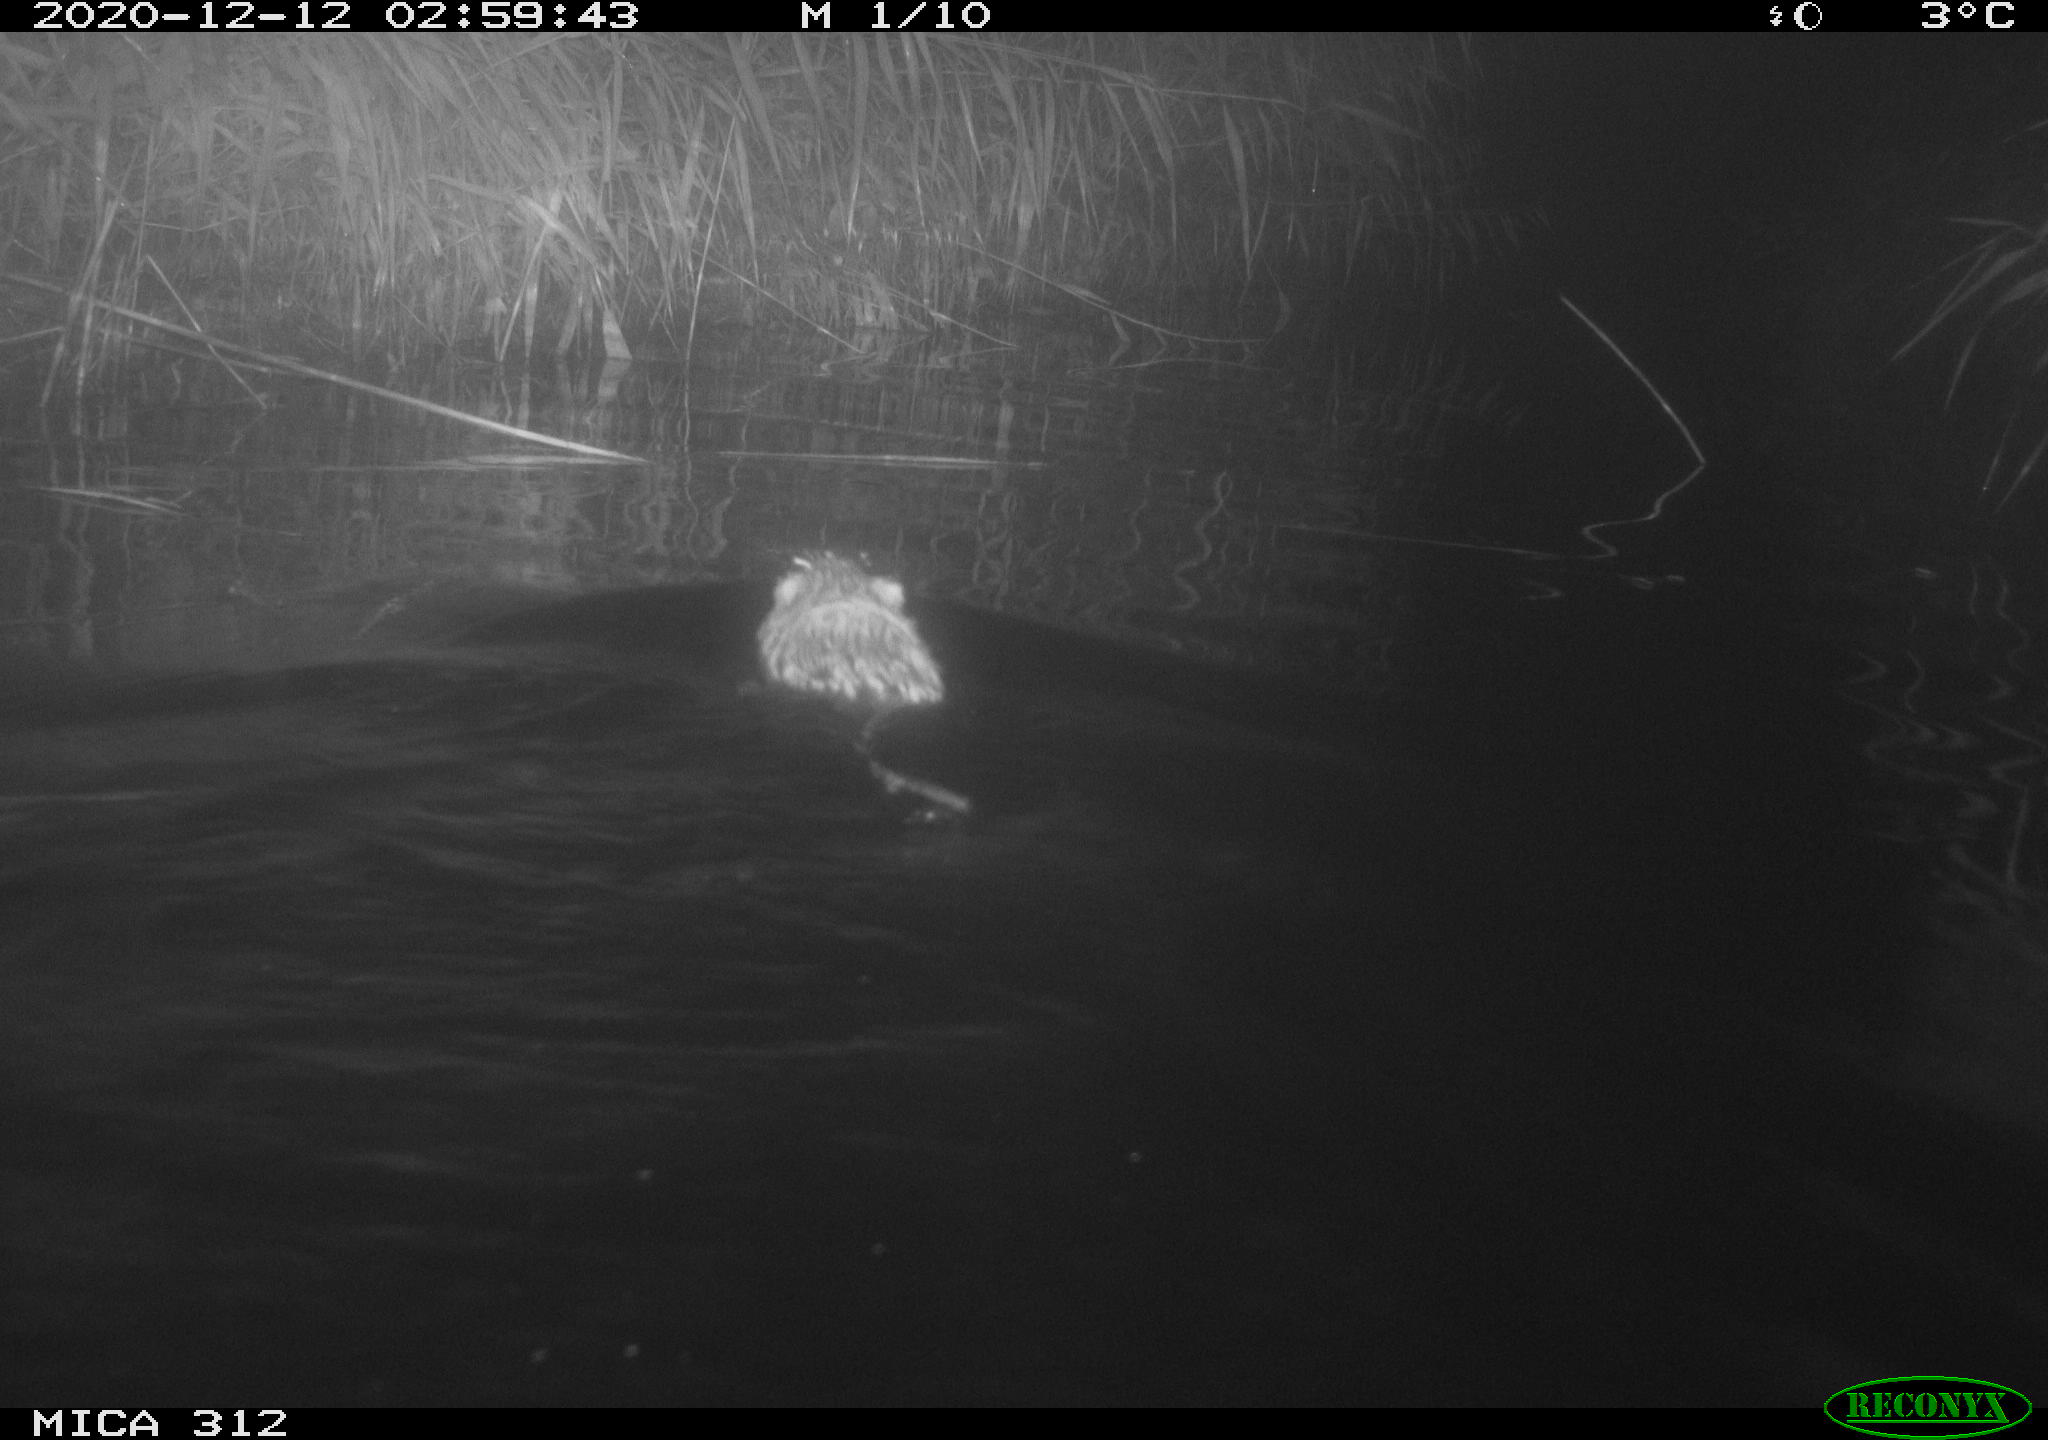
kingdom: Animalia
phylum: Chordata
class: Mammalia
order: Rodentia
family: Cricetidae
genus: Ondatra
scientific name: Ondatra zibethicus
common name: Muskrat
